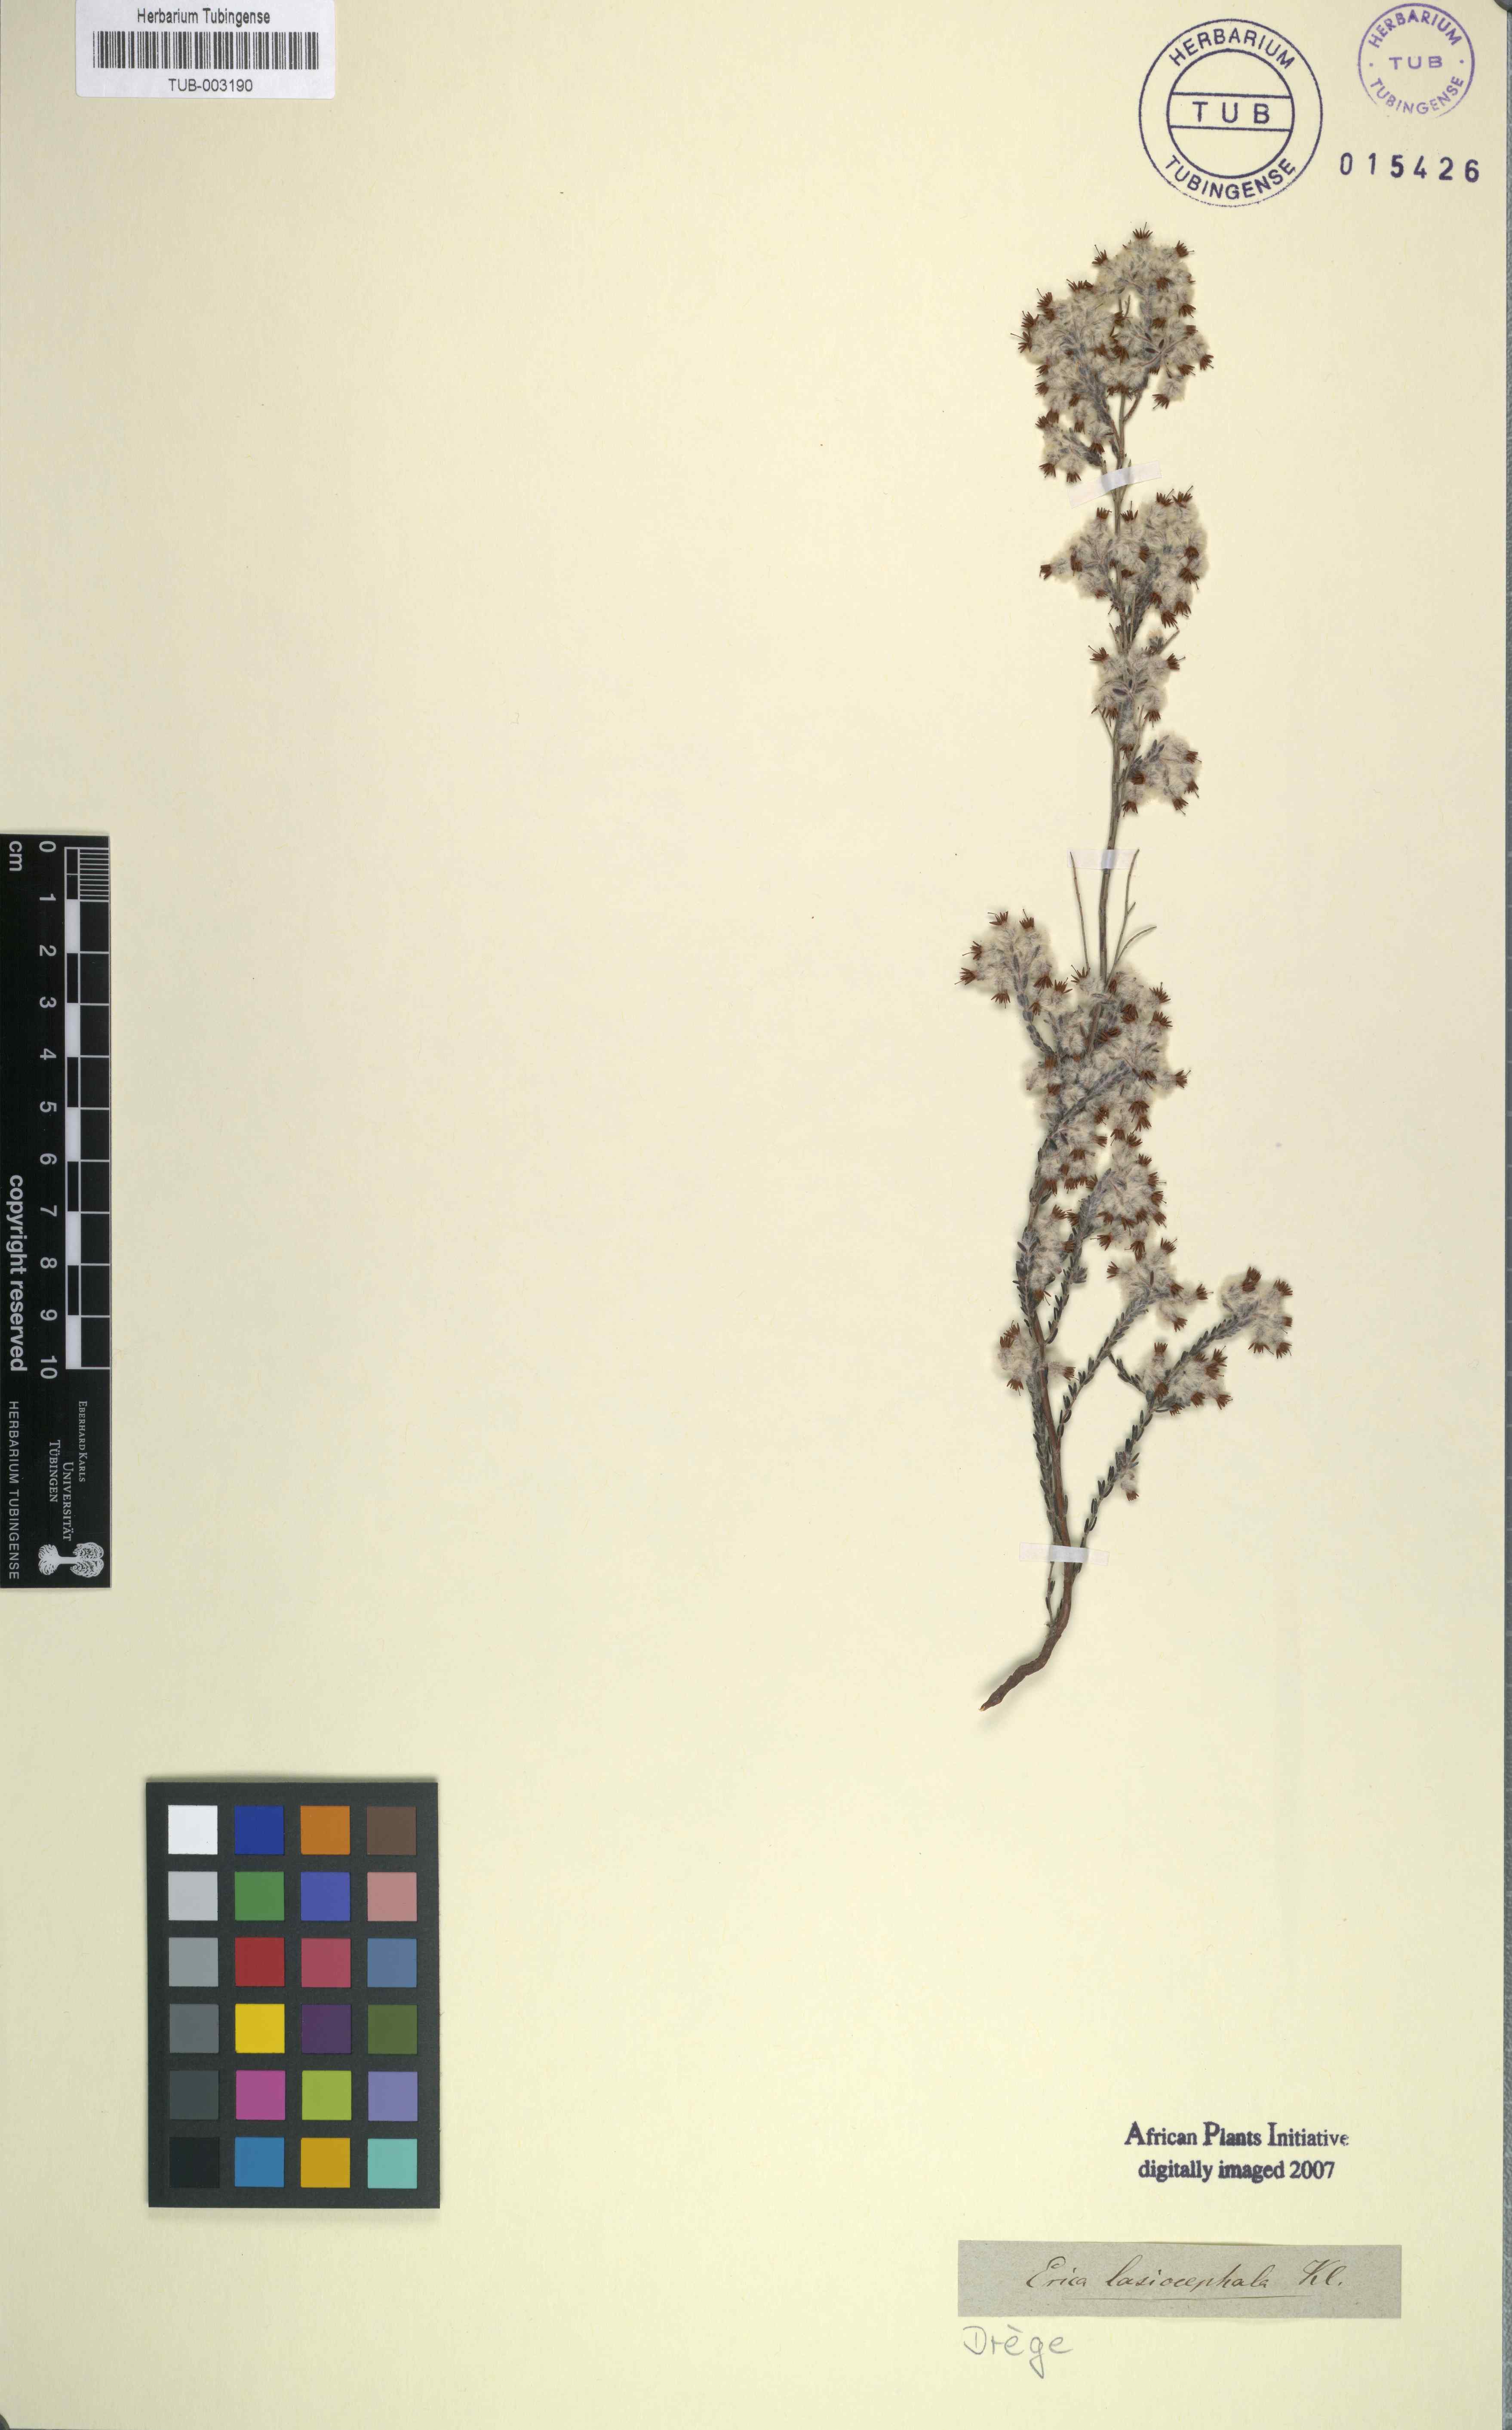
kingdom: Plantae
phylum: Tracheophyta
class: Magnoliopsida
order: Ericales
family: Ericaceae
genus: Erica
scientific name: Erica bruniades
